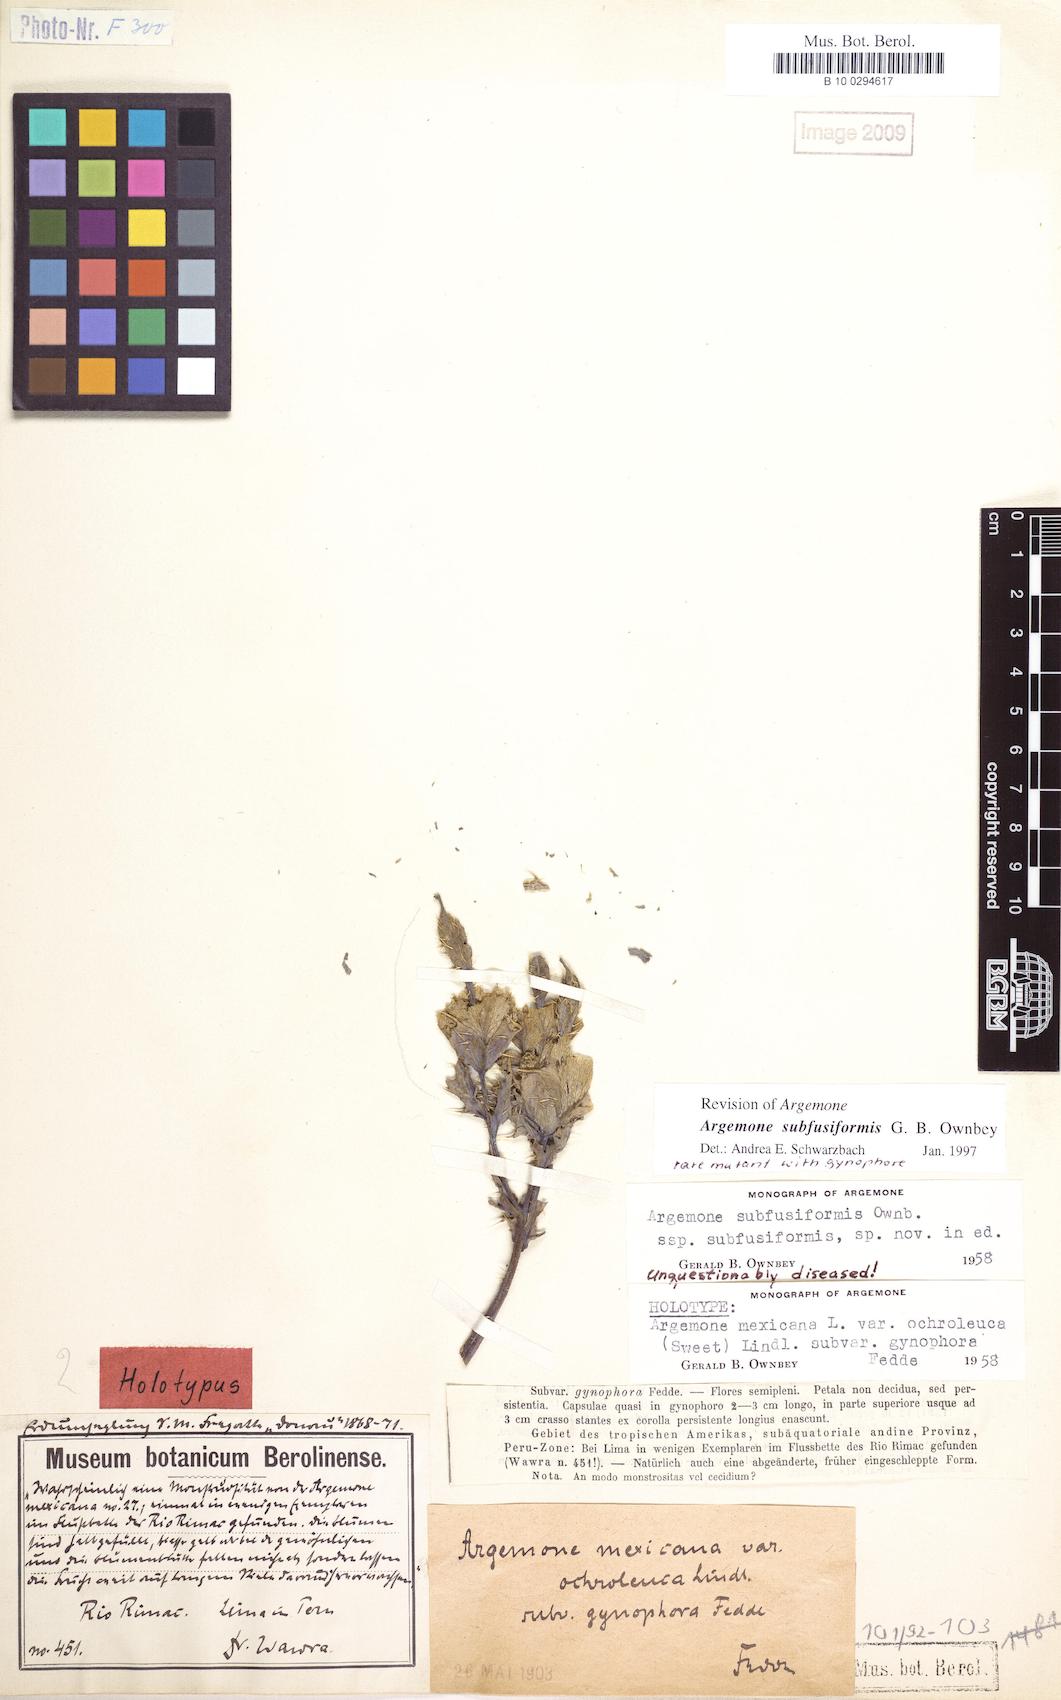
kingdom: Plantae
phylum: Tracheophyta
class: Magnoliopsida
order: Ranunculales
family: Papaveraceae
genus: Argemone
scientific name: Argemone subfusiformis
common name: American-poppy
